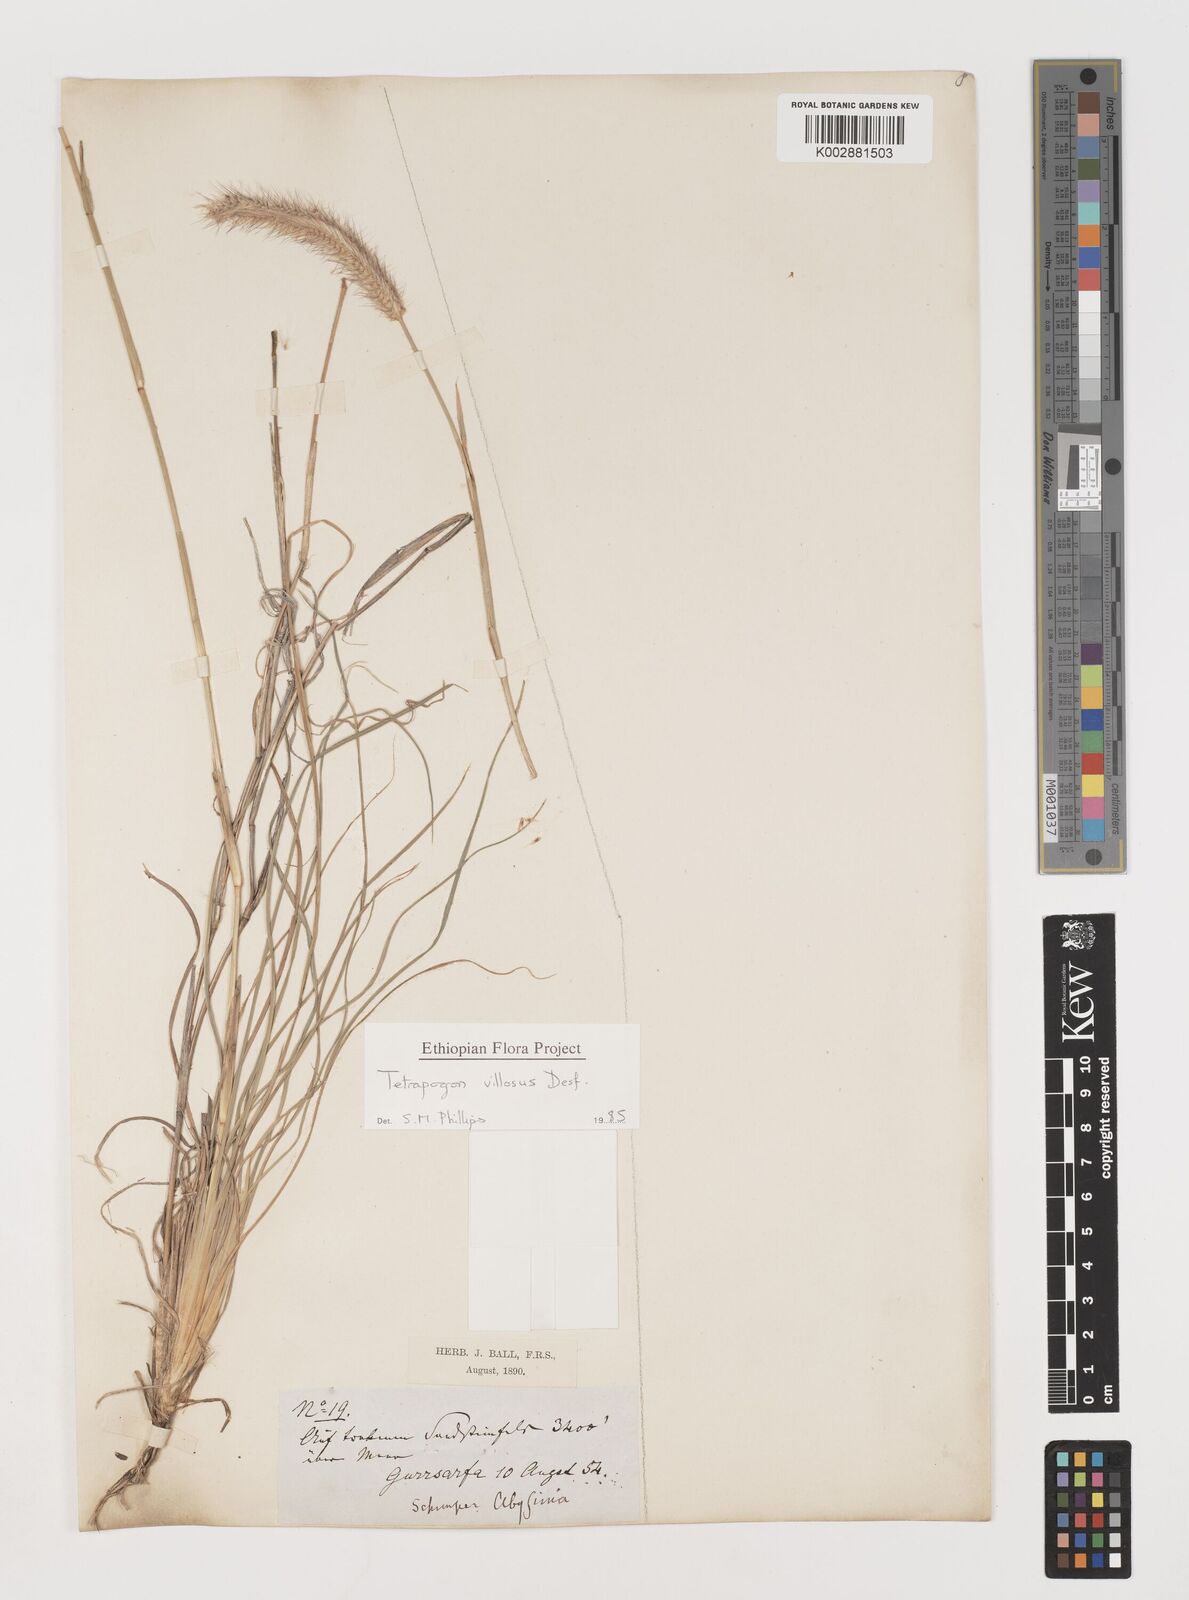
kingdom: Plantae
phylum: Tracheophyta
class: Liliopsida
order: Poales
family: Poaceae
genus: Tetrapogon
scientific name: Tetrapogon villosus
